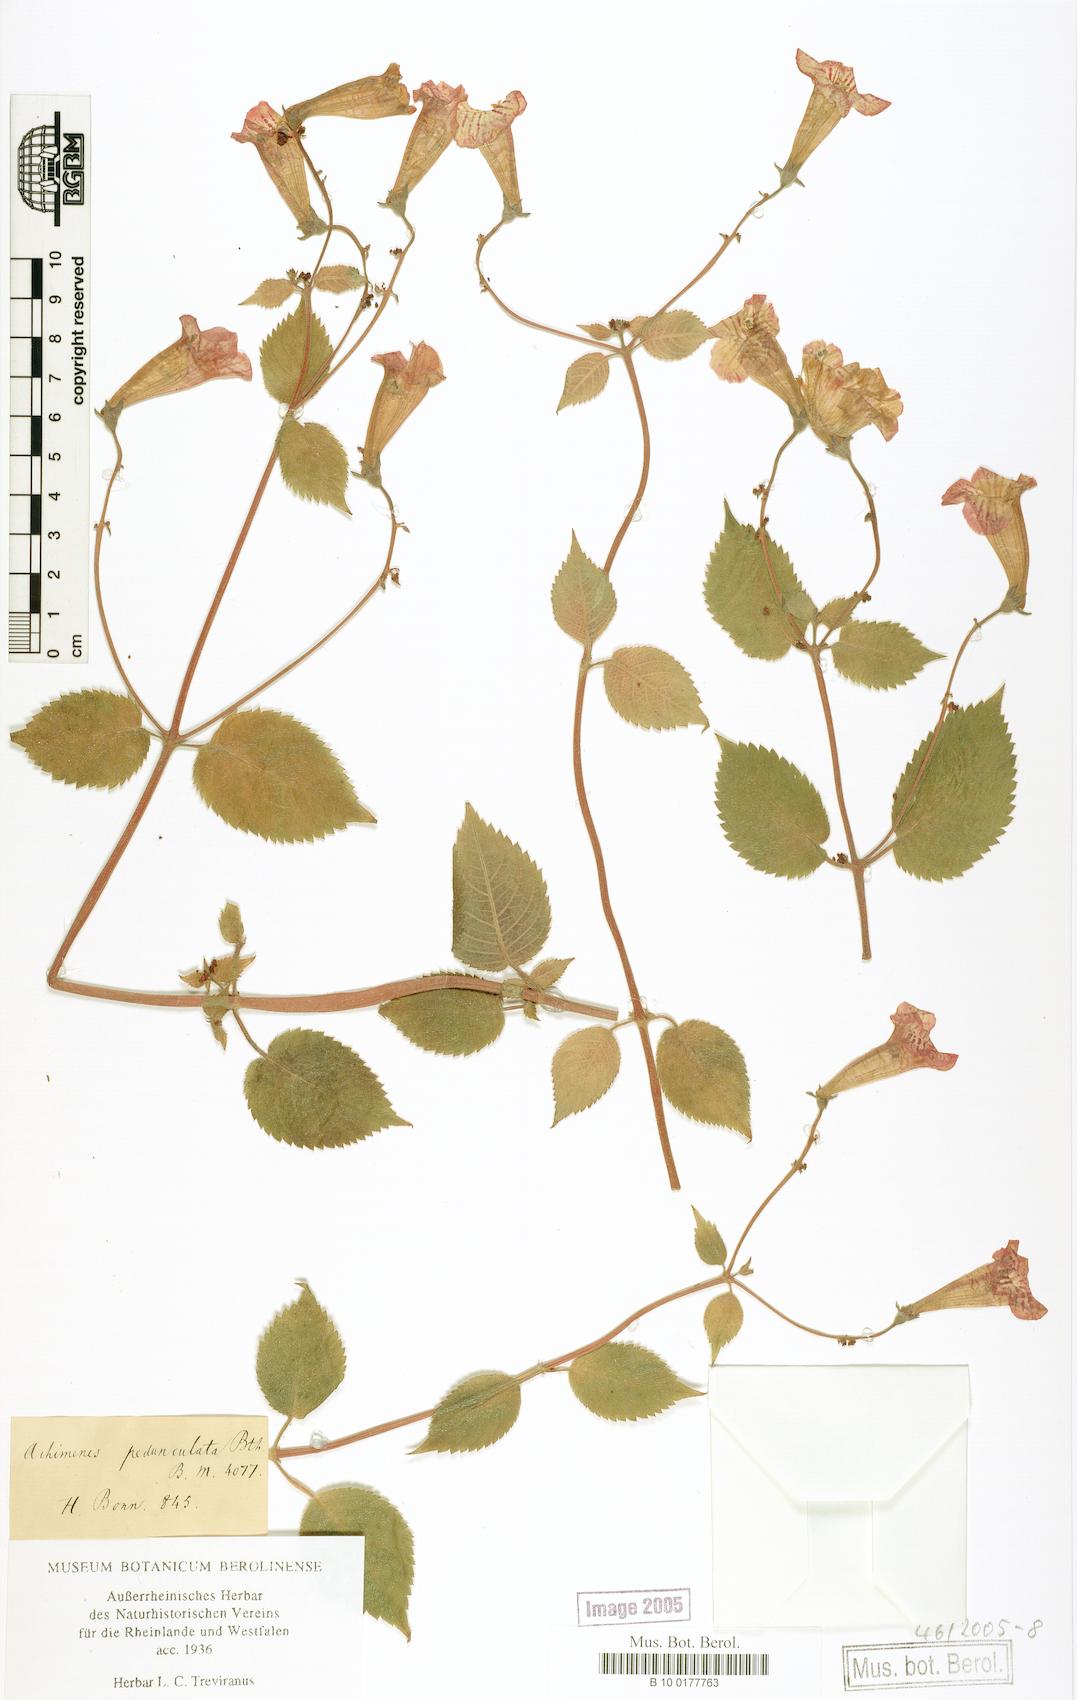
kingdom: Plantae
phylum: Tracheophyta
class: Magnoliopsida
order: Lamiales
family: Gesneriaceae
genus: Achimenes
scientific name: Achimenes pedunculata
